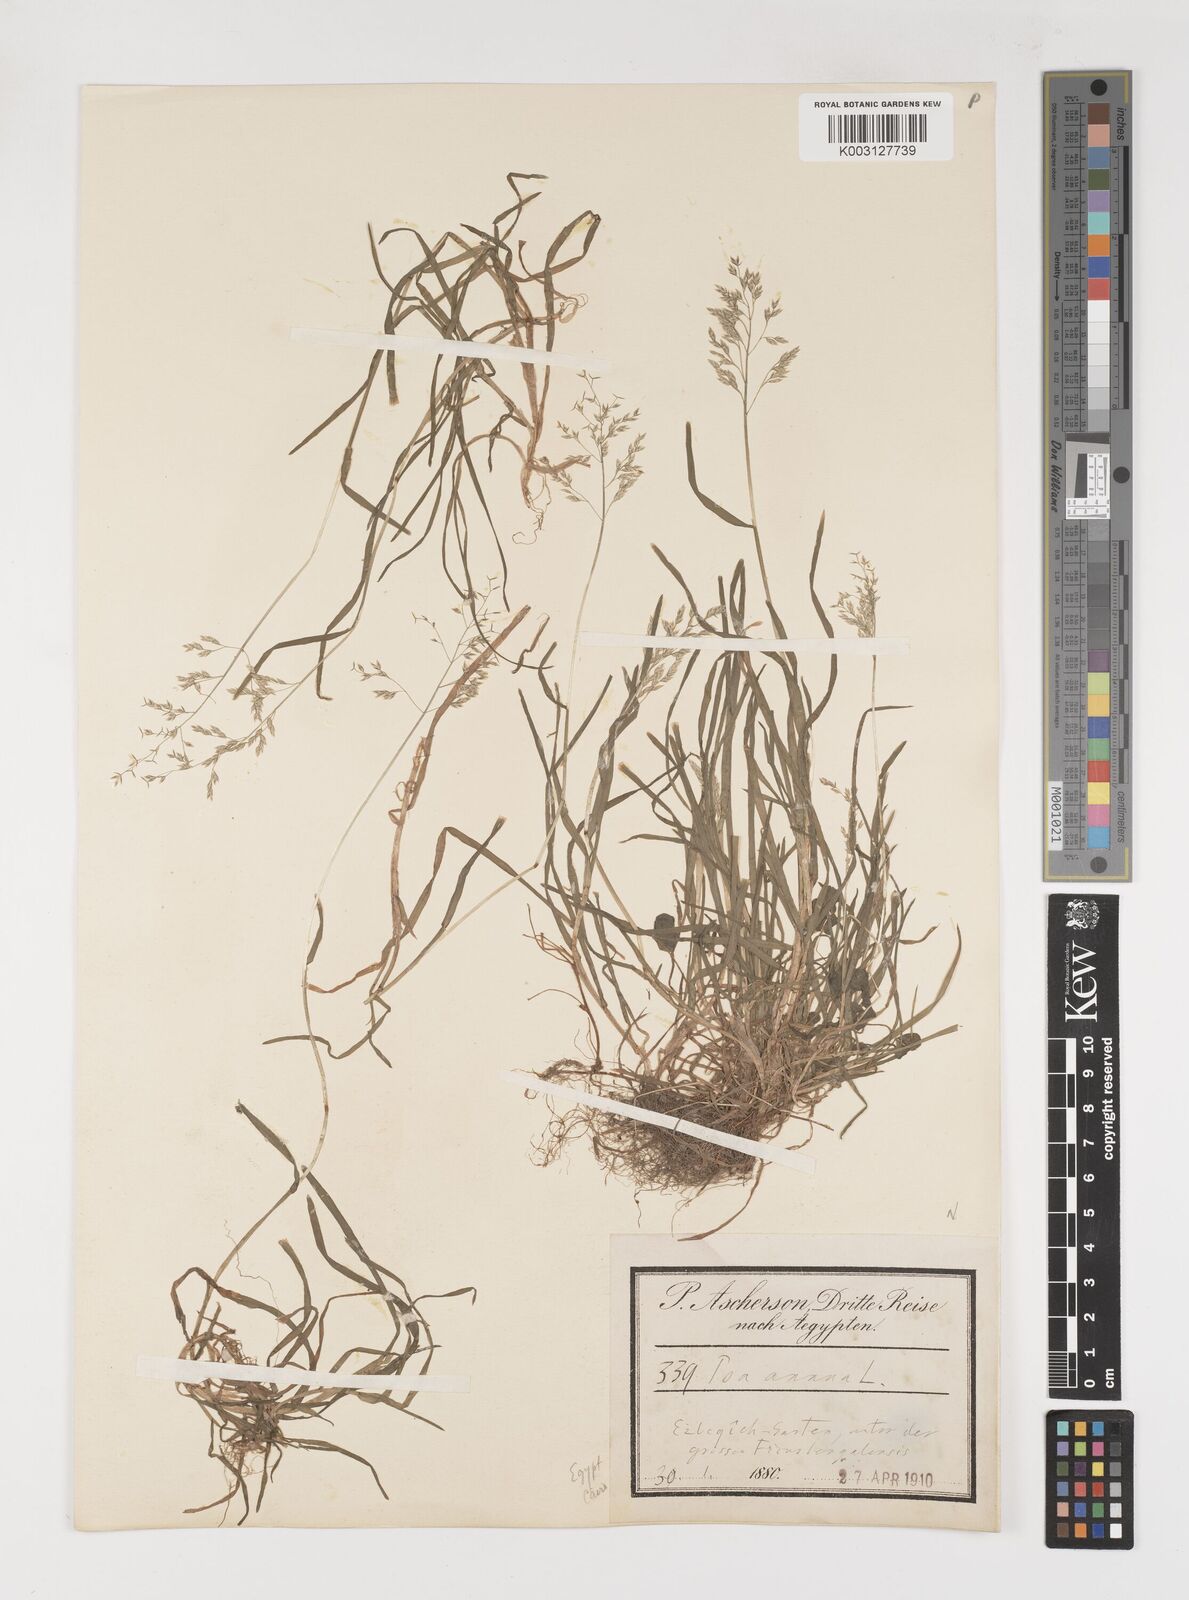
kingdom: Plantae
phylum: Tracheophyta
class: Liliopsida
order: Poales
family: Poaceae
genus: Poa
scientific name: Poa annua
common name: Annual bluegrass
